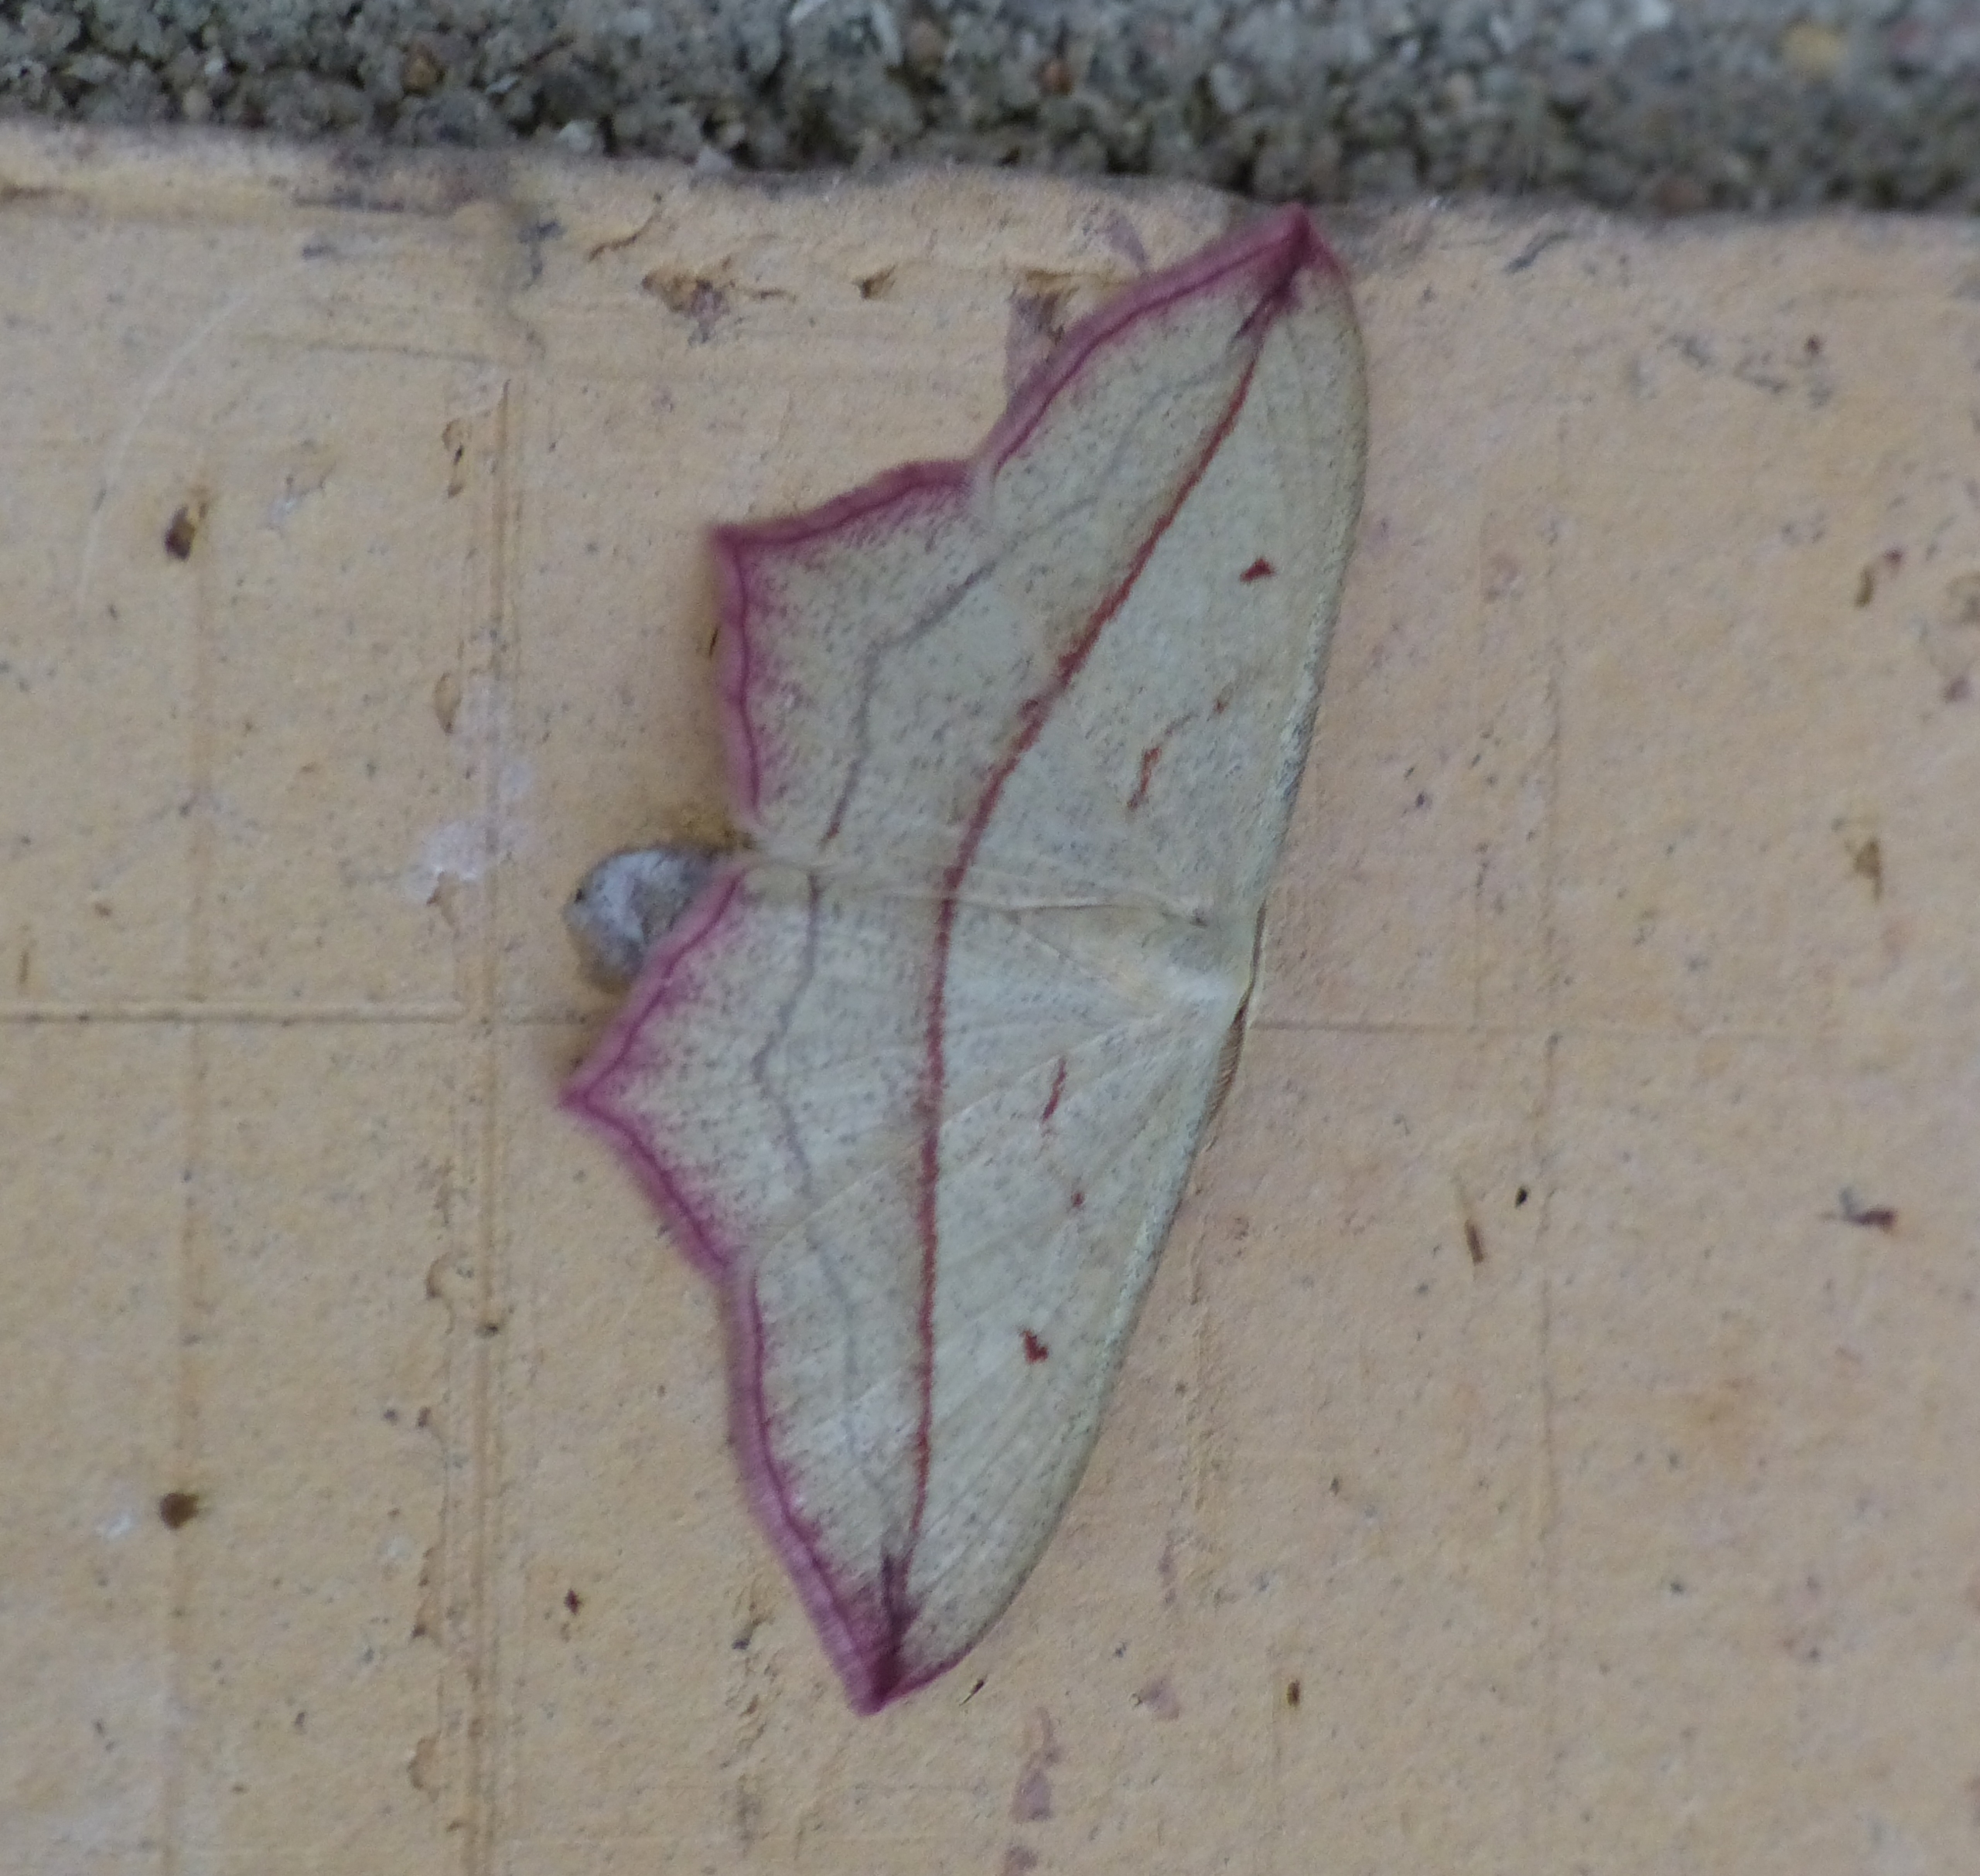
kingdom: Animalia
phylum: Arthropoda
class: Insecta
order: Lepidoptera
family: Geometridae
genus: Timandra
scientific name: Timandra comae
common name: Gul syremåler
